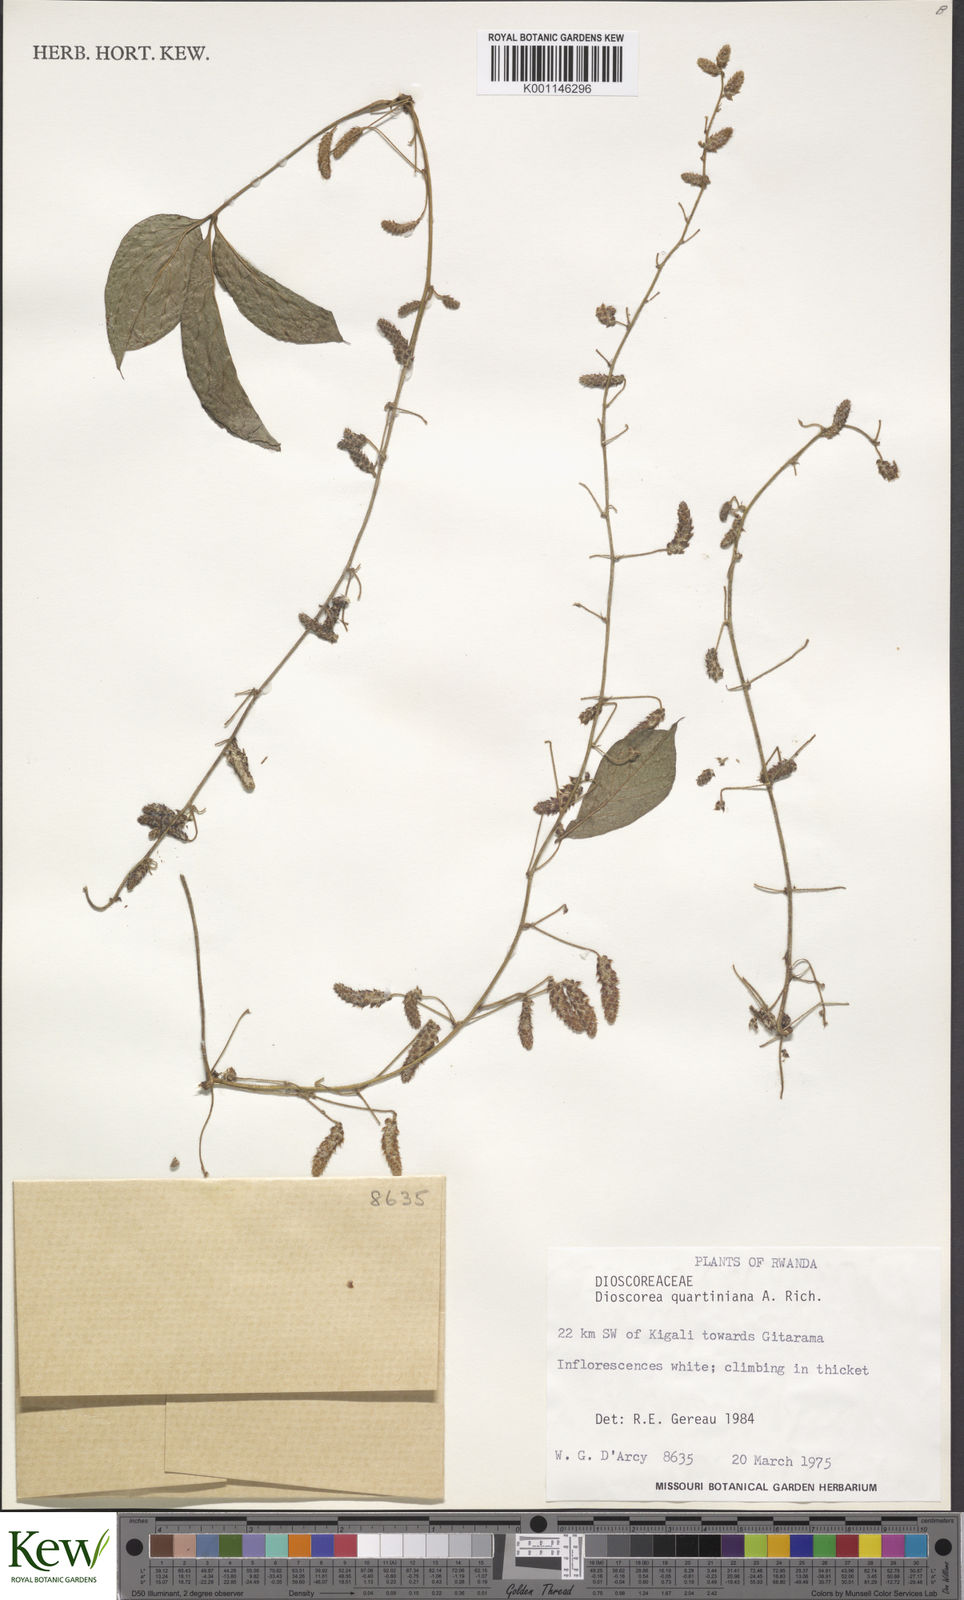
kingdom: Plantae
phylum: Tracheophyta
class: Liliopsida
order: Dioscoreales
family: Dioscoreaceae
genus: Dioscorea
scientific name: Dioscorea quartiniana
